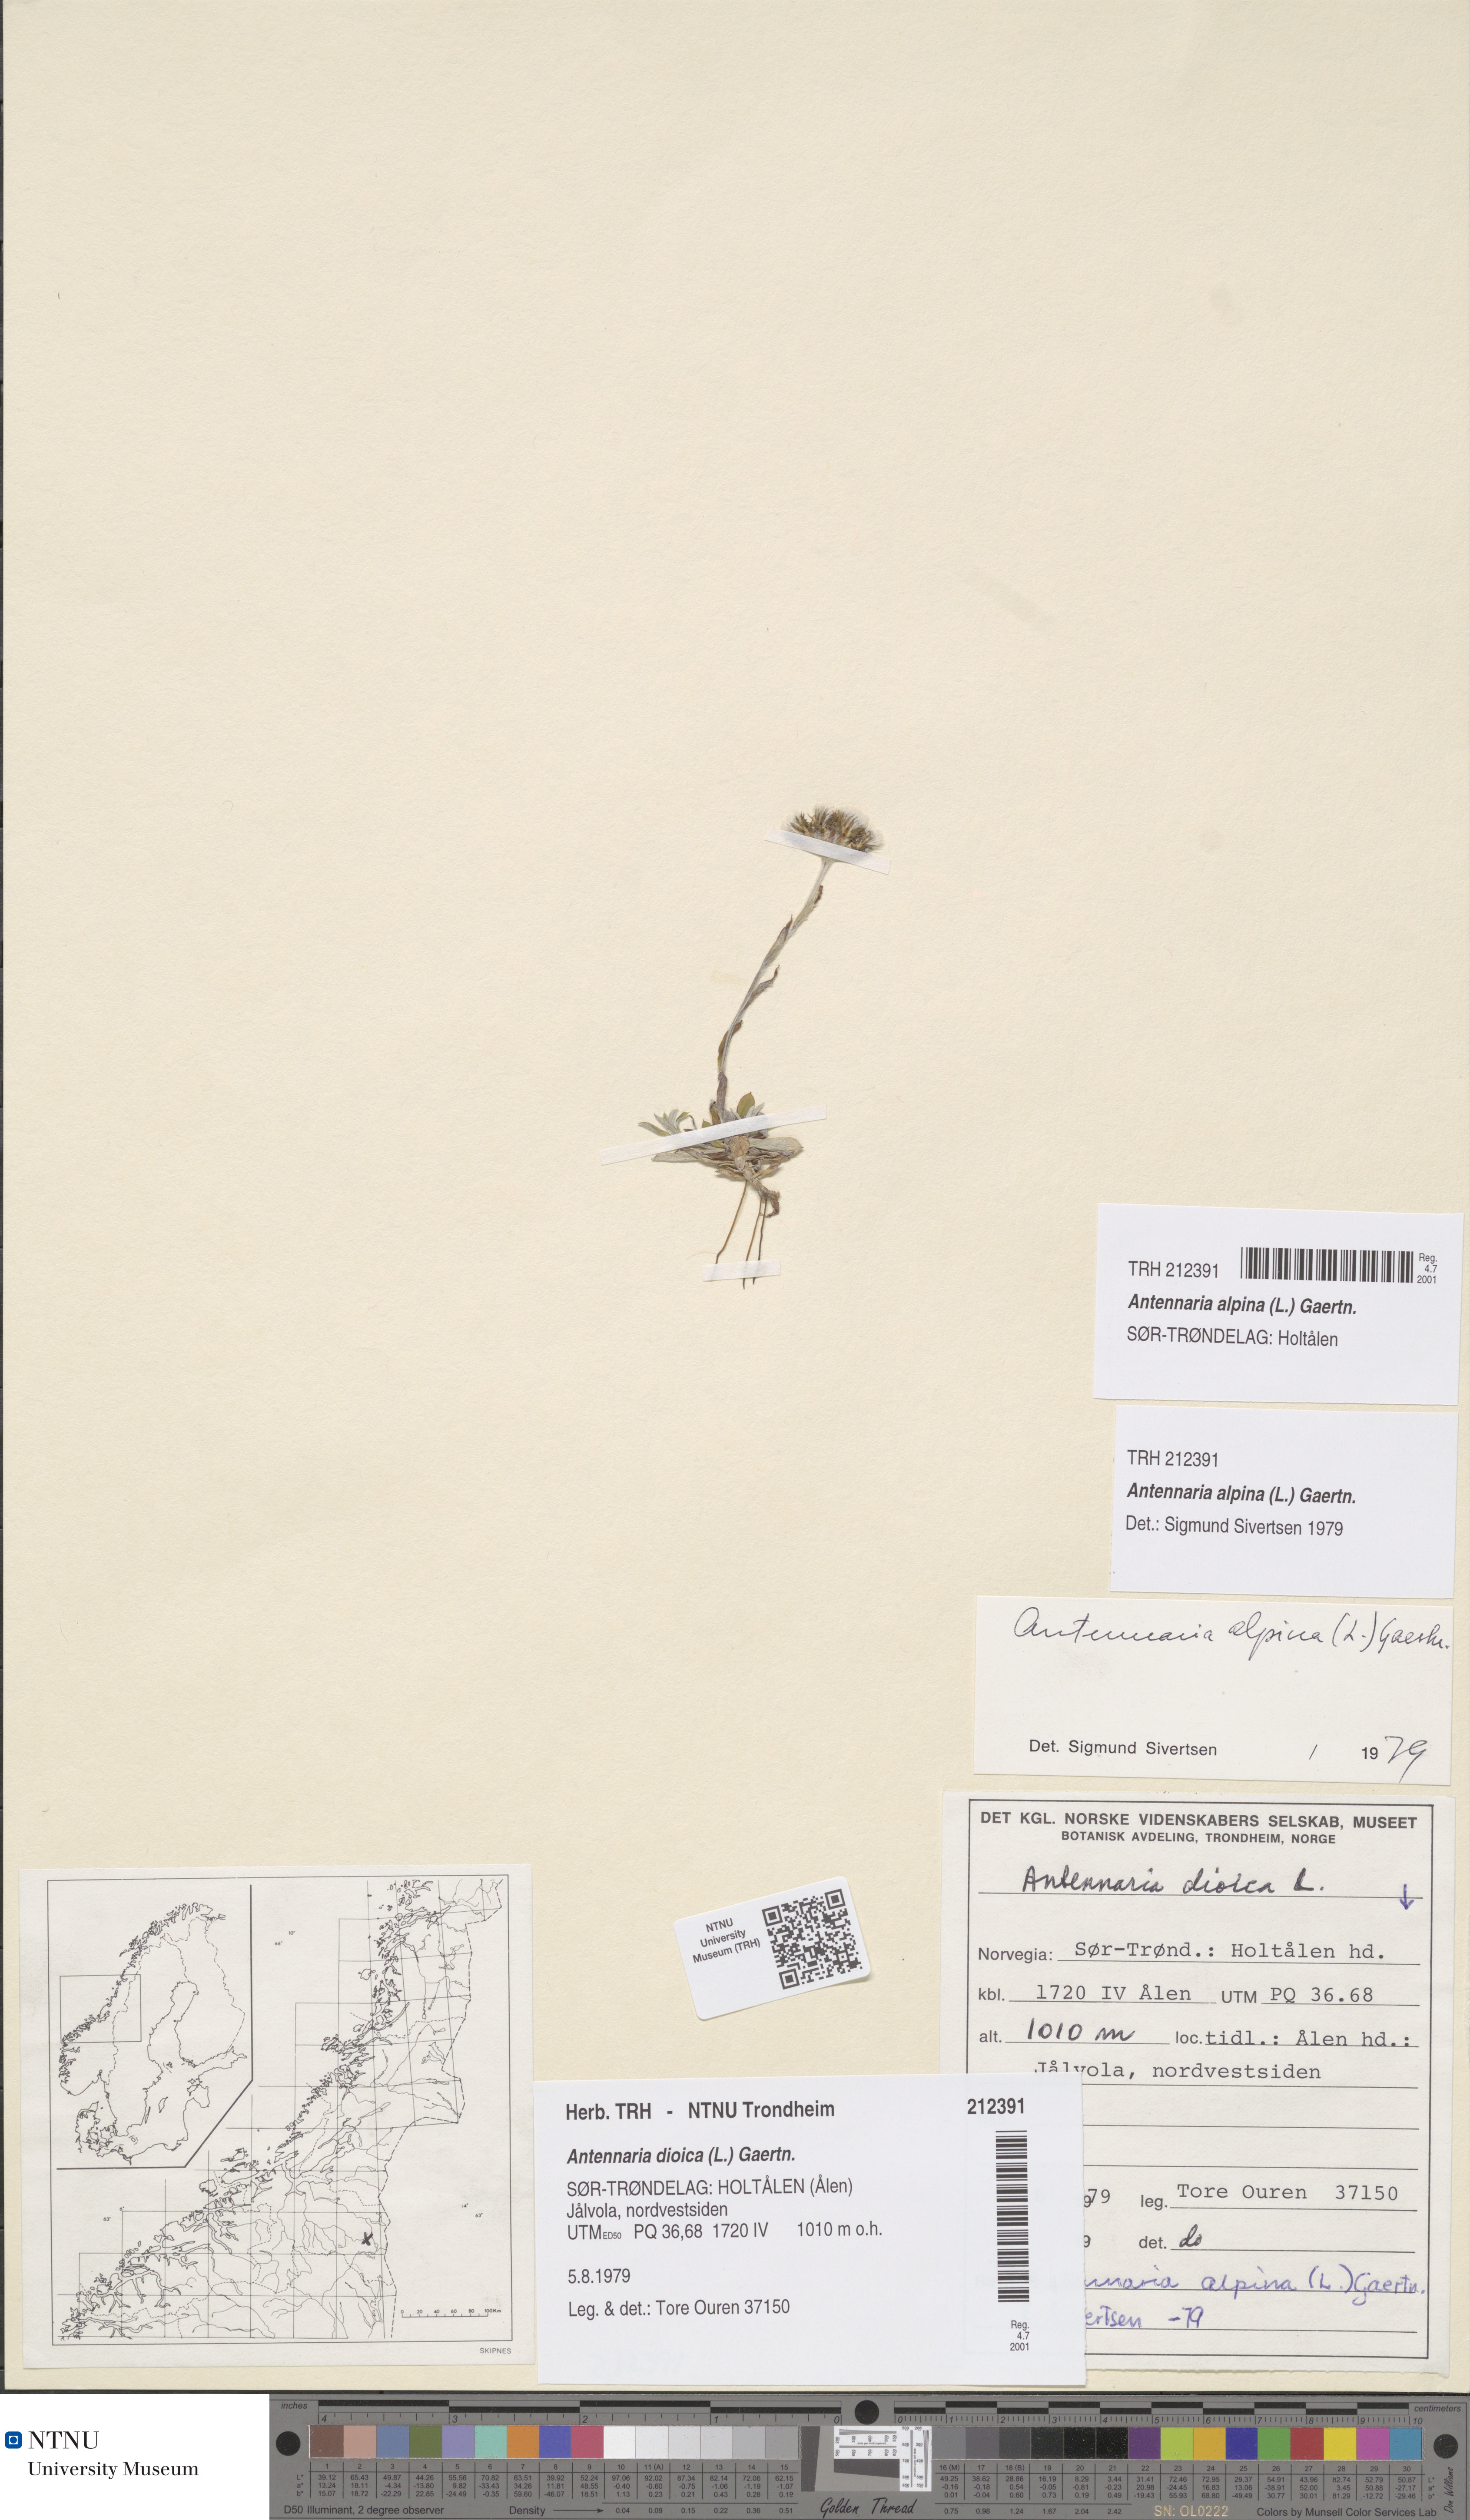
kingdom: Plantae
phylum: Tracheophyta
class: Magnoliopsida
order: Asterales
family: Asteraceae
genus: Antennaria
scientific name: Antennaria alpina
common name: Alpine pussytoes
